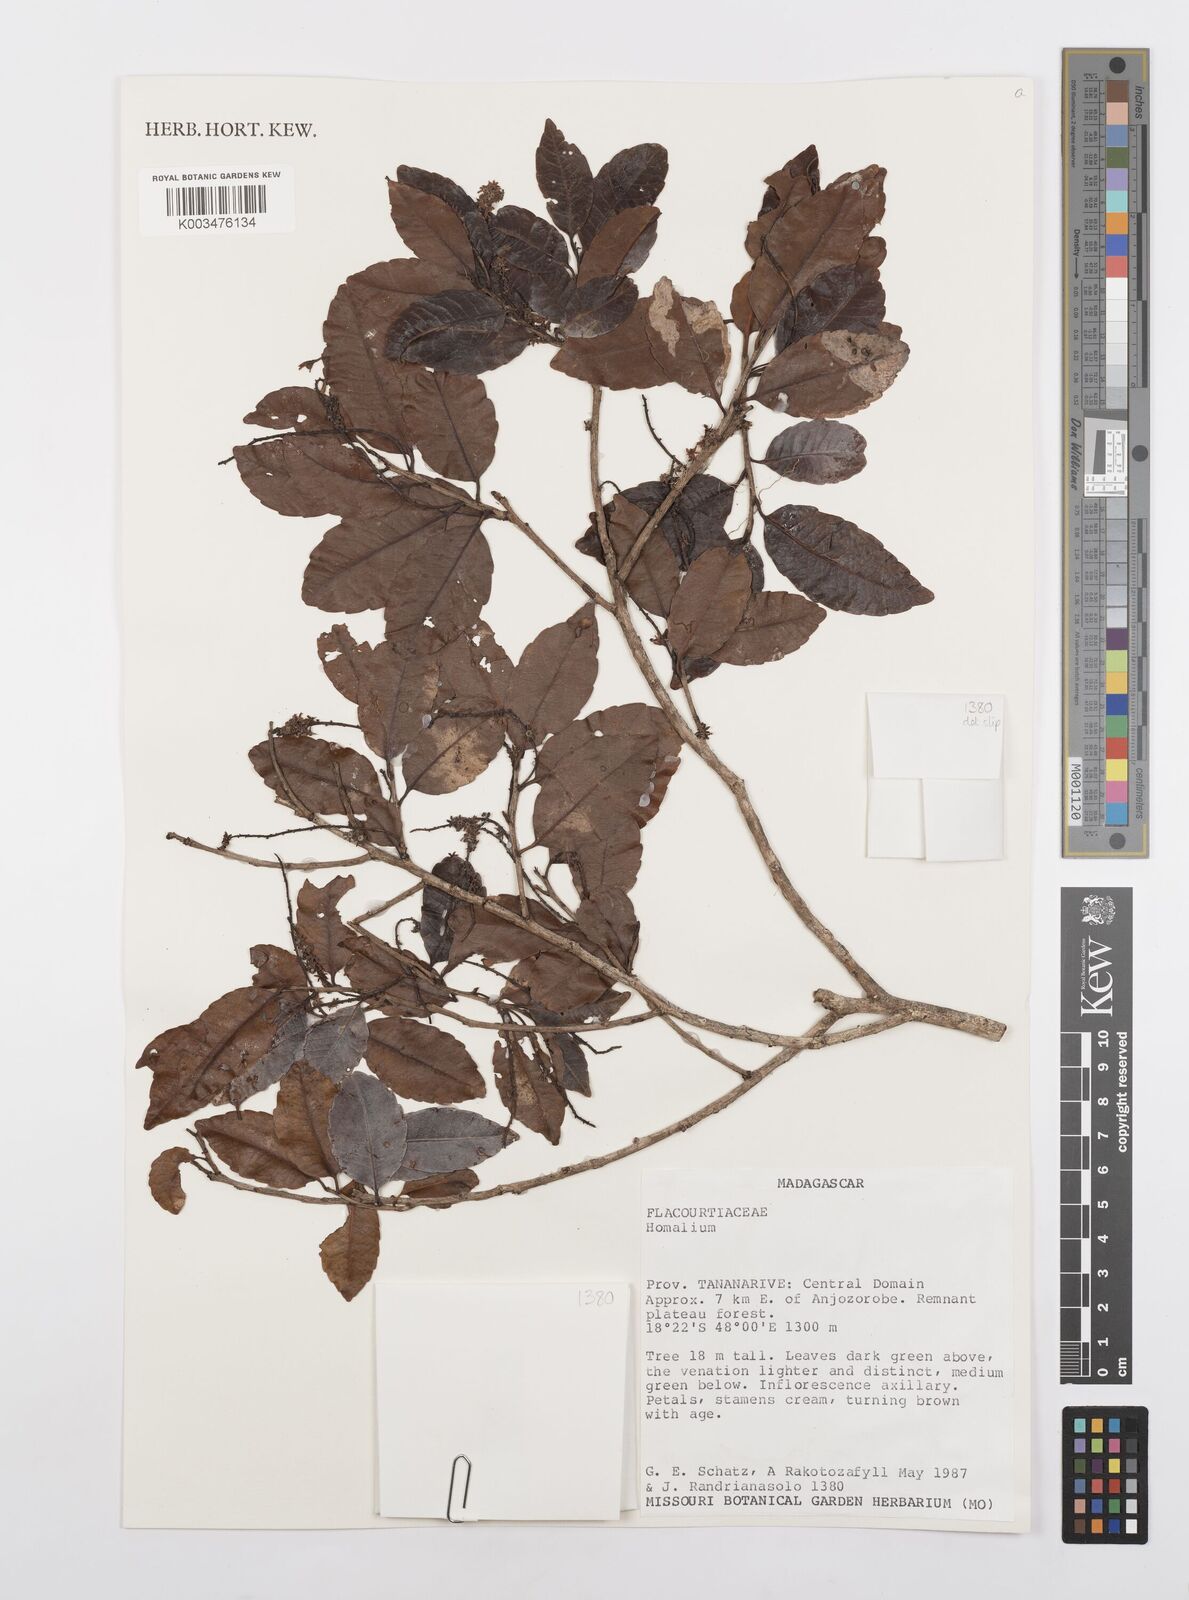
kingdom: Plantae
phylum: Tracheophyta
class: Magnoliopsida
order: Malpighiales
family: Salicaceae
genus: Homalium
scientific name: Homalium
